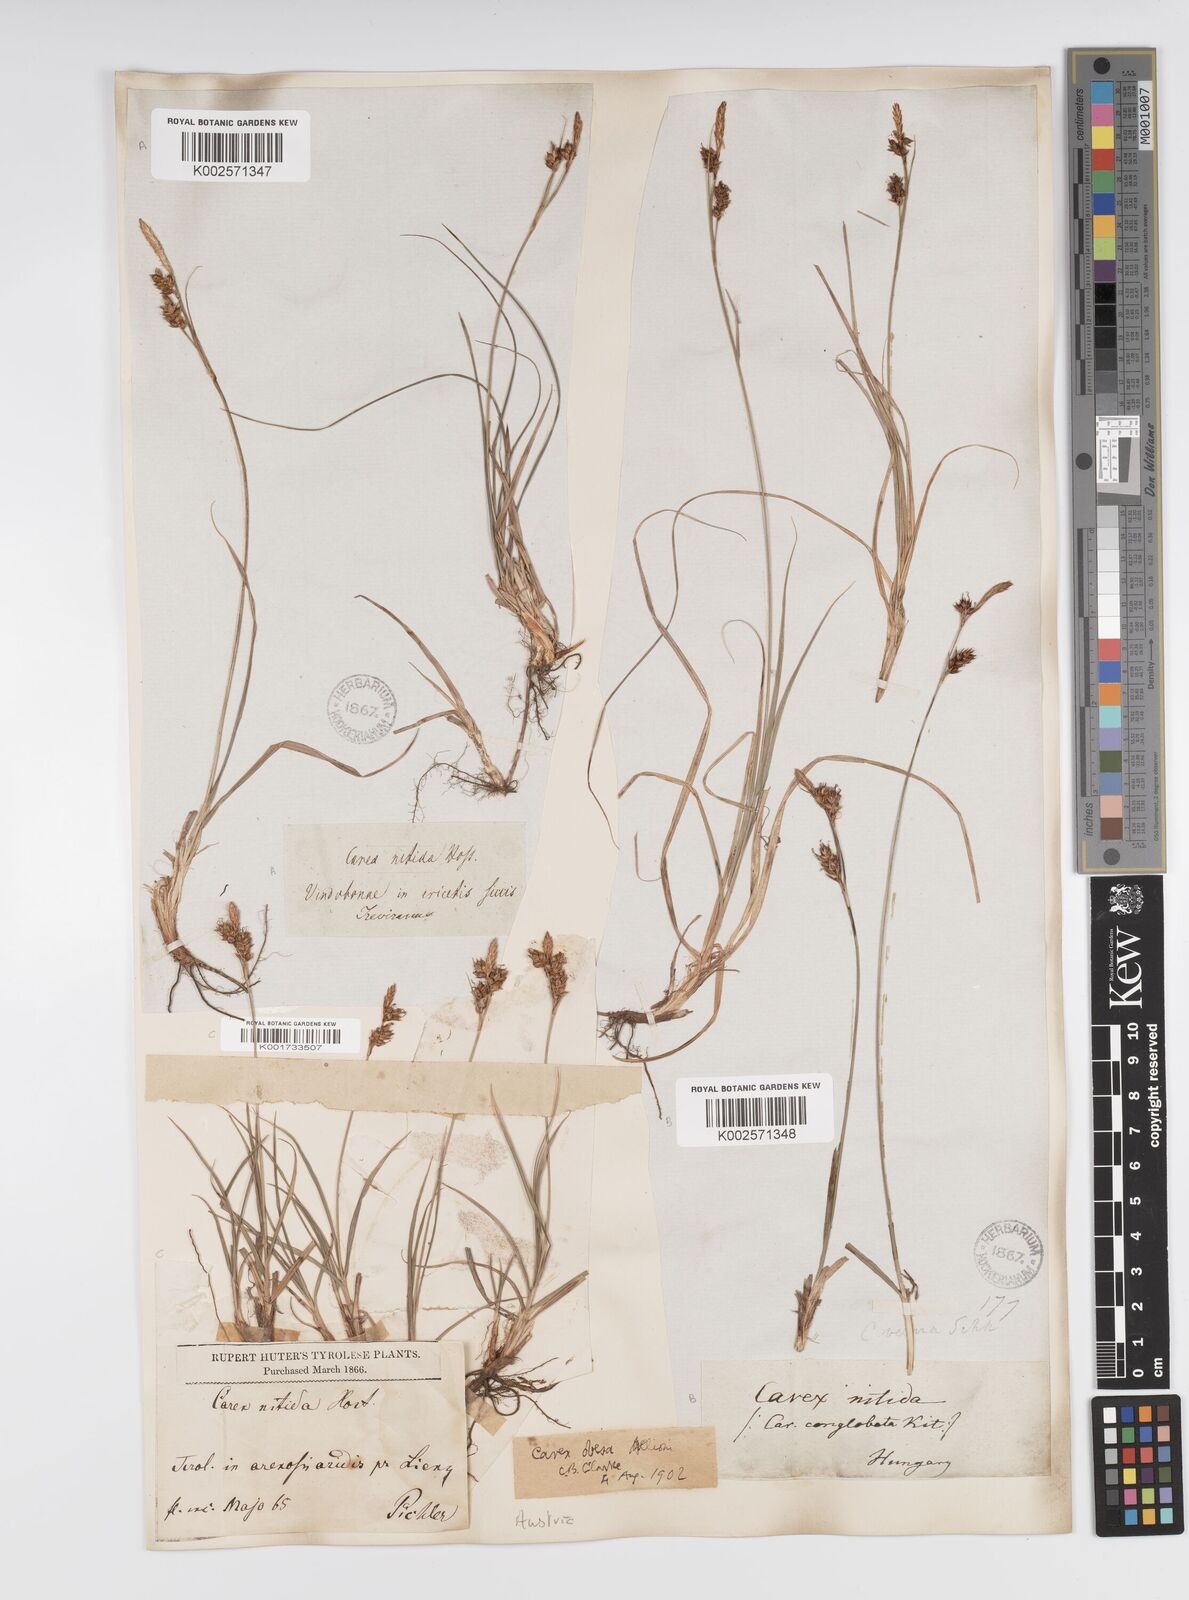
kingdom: Plantae
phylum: Tracheophyta
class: Liliopsida
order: Poales
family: Cyperaceae
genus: Carex
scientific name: Carex liparocarpos
